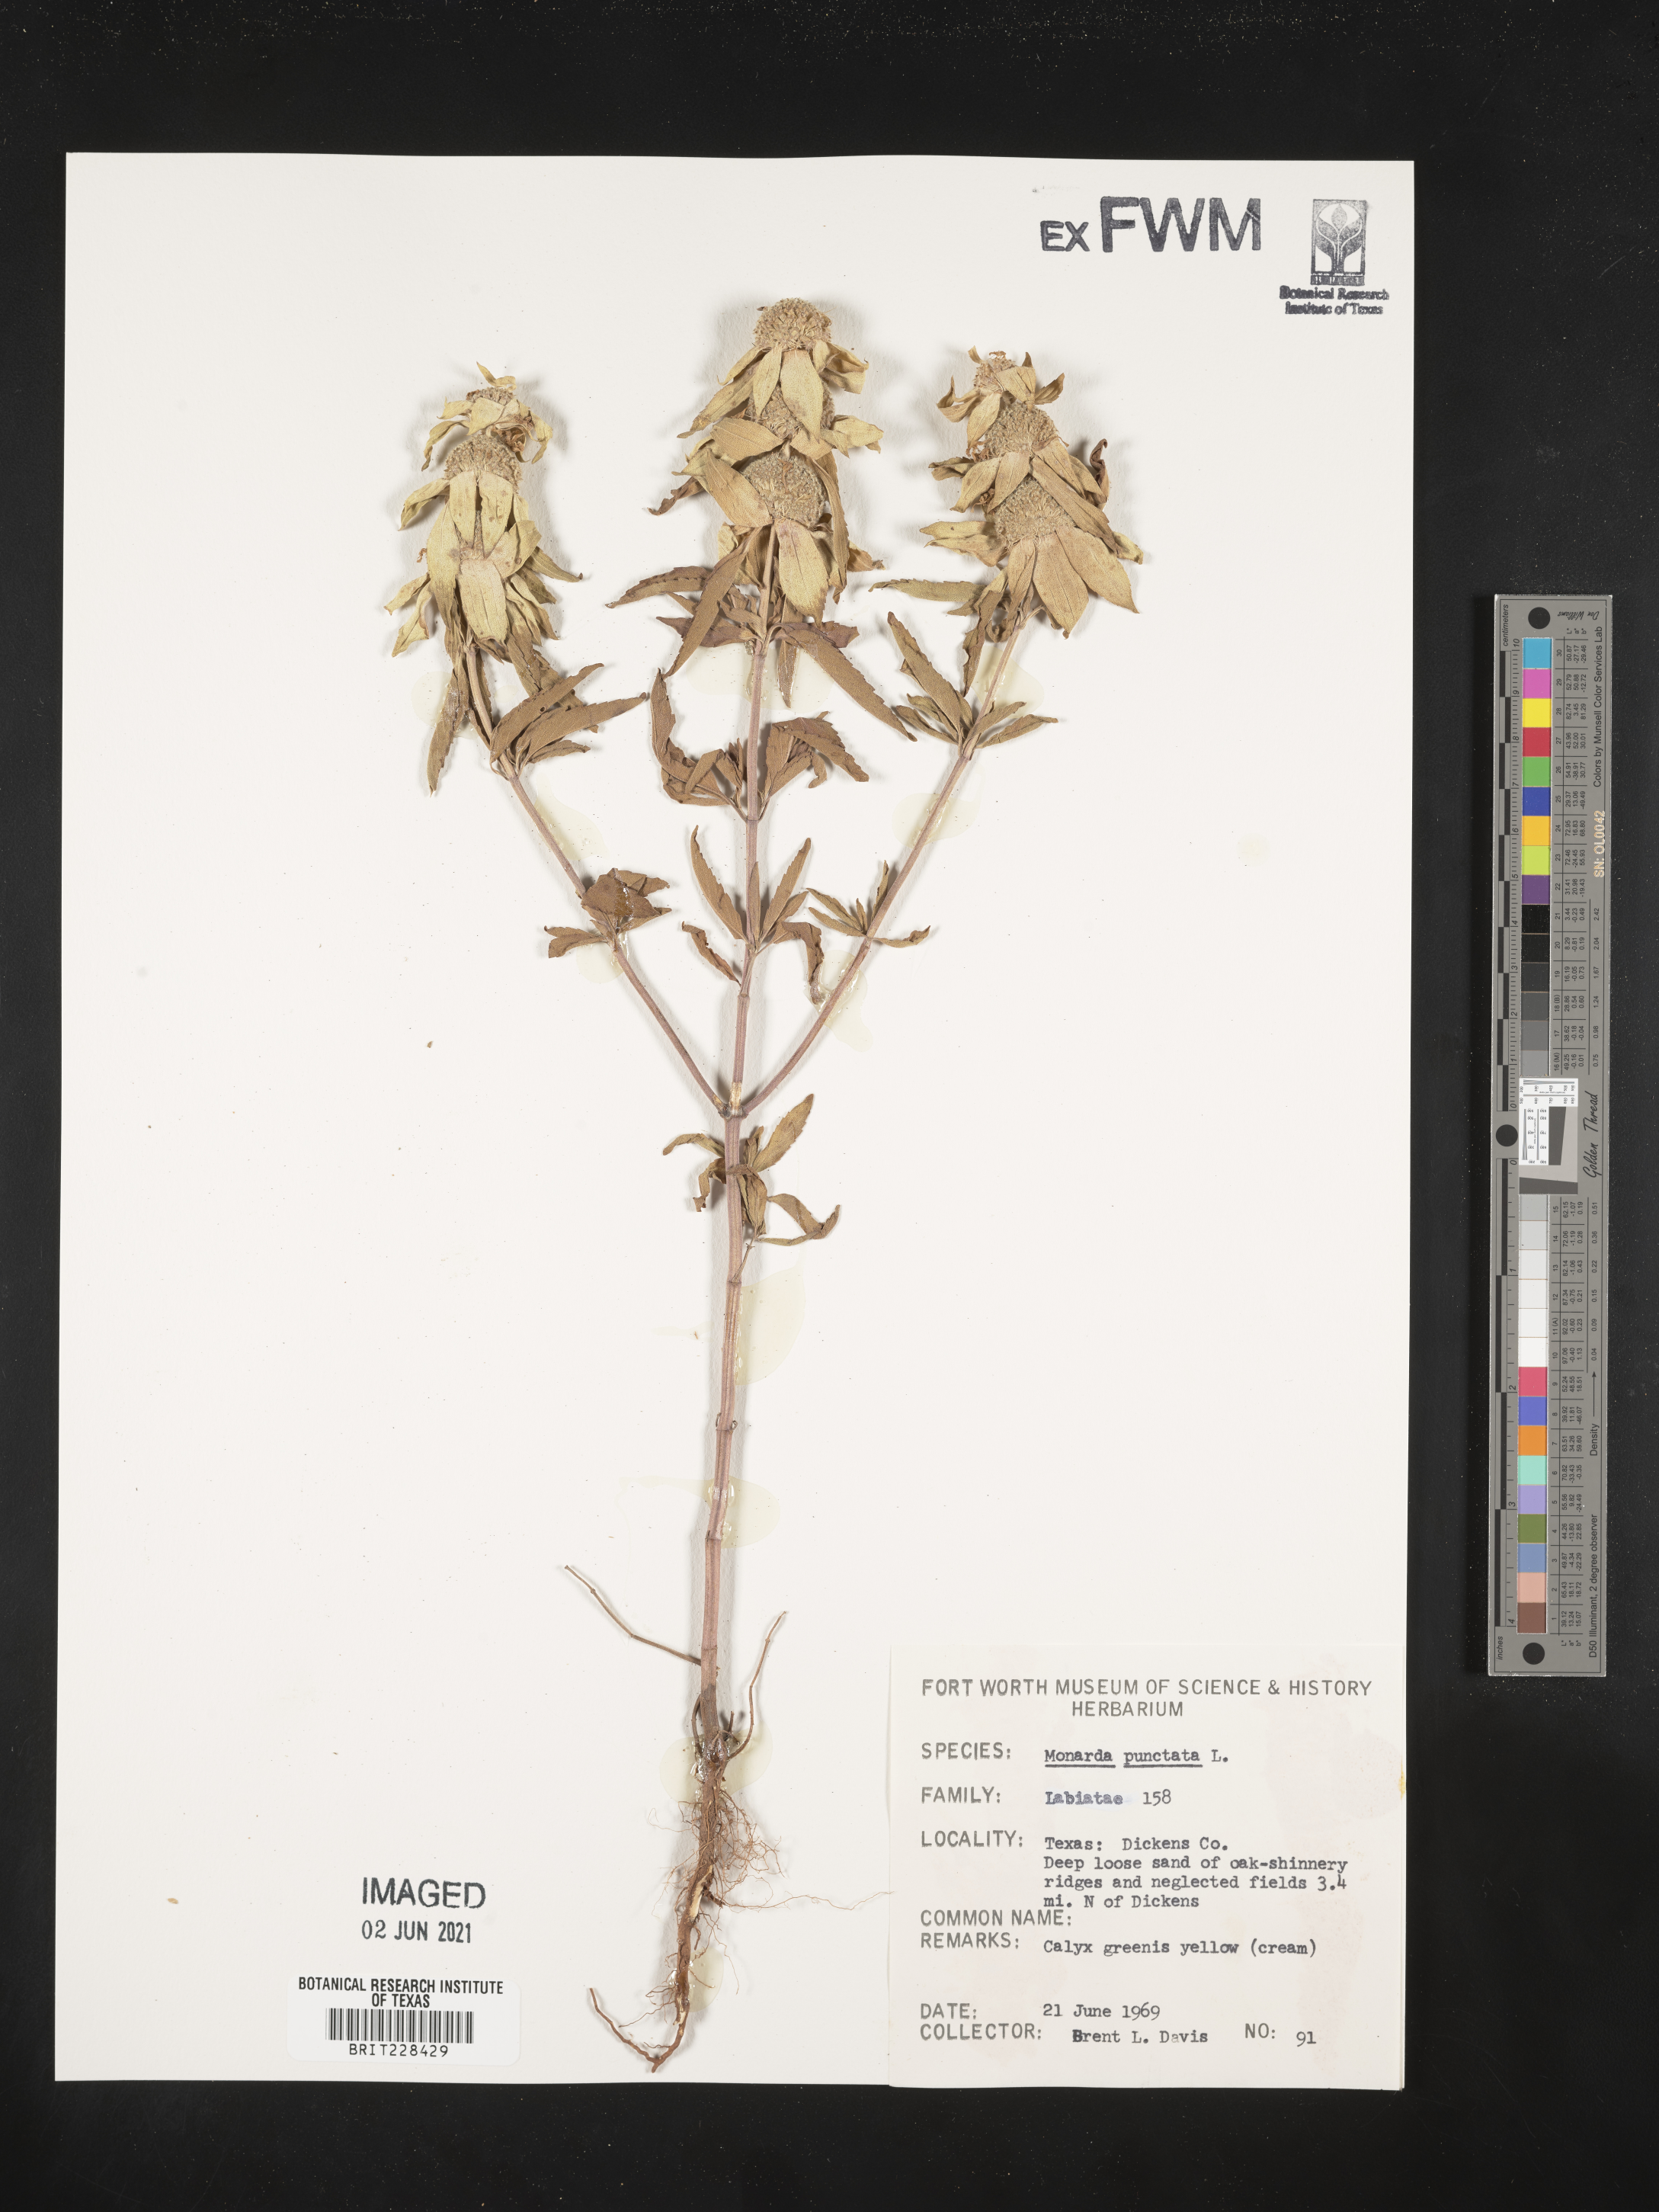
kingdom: Plantae
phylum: Tracheophyta
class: Magnoliopsida
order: Lamiales
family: Lamiaceae
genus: Monarda
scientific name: Monarda punctata
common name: Dotted monarda
